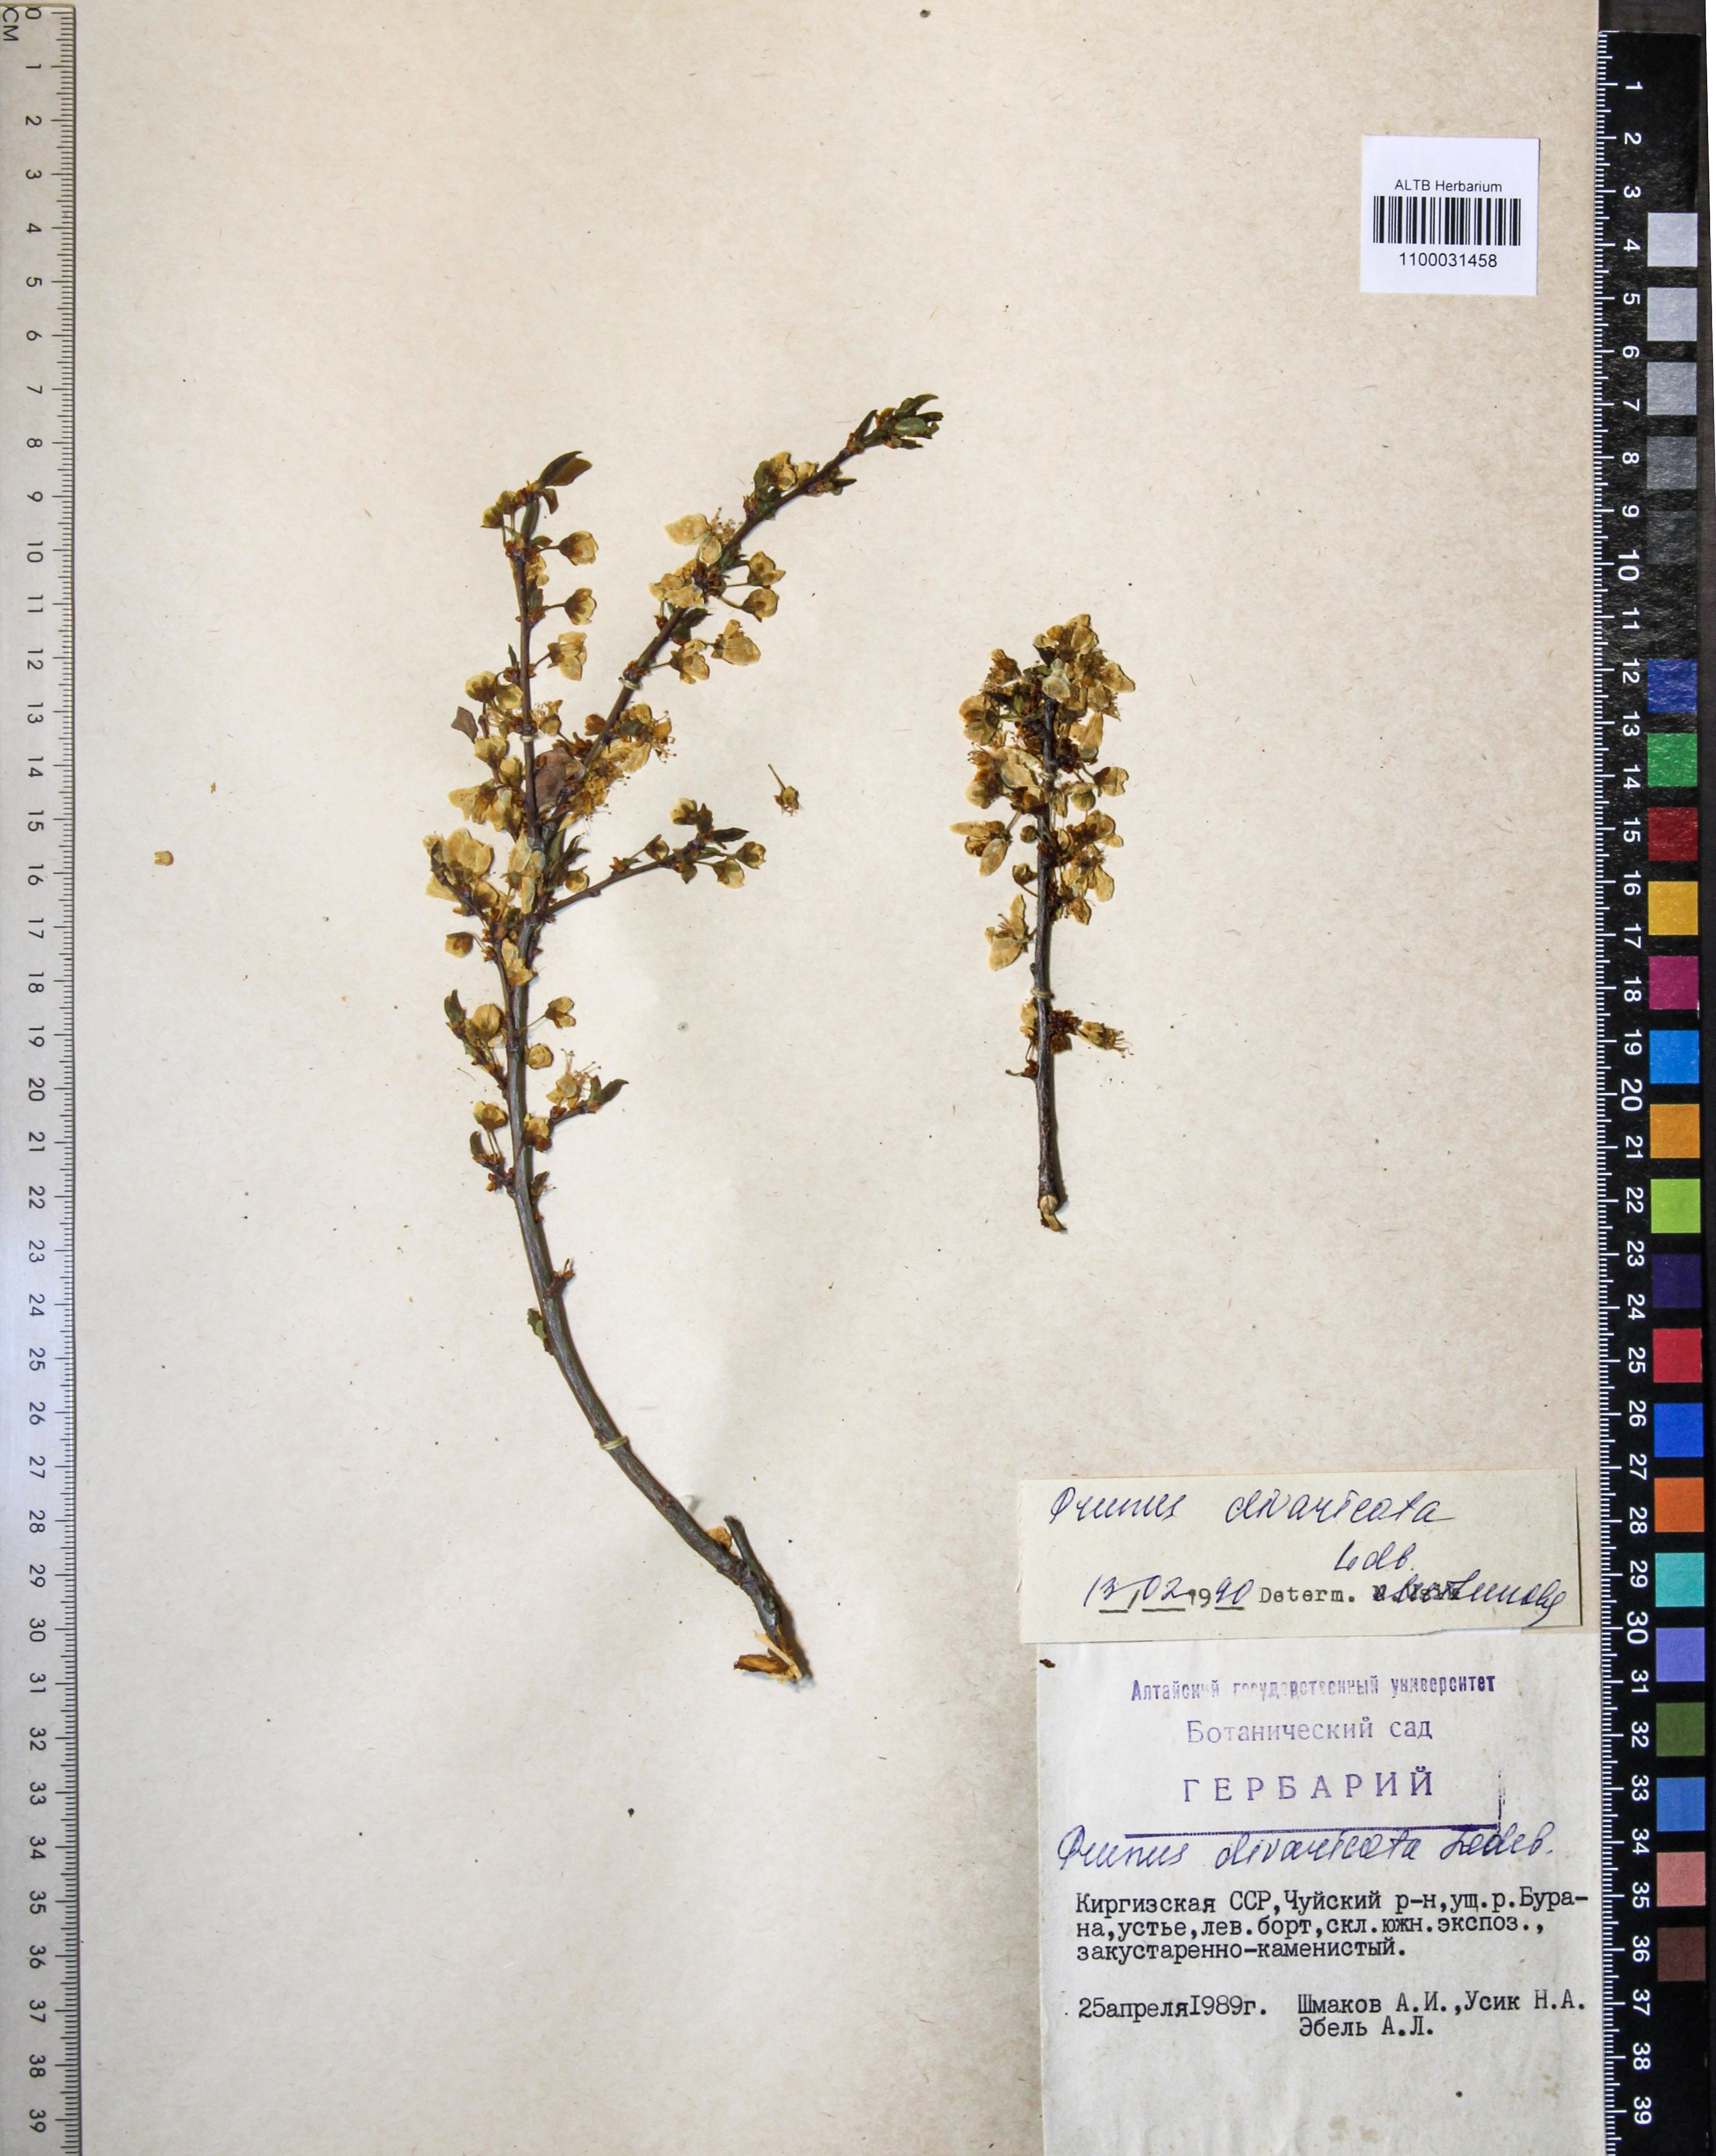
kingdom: Plantae
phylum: Tracheophyta
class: Magnoliopsida
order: Rosales
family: Rosaceae
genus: Prunus
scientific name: Prunus cerasifera
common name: Cherry plum
